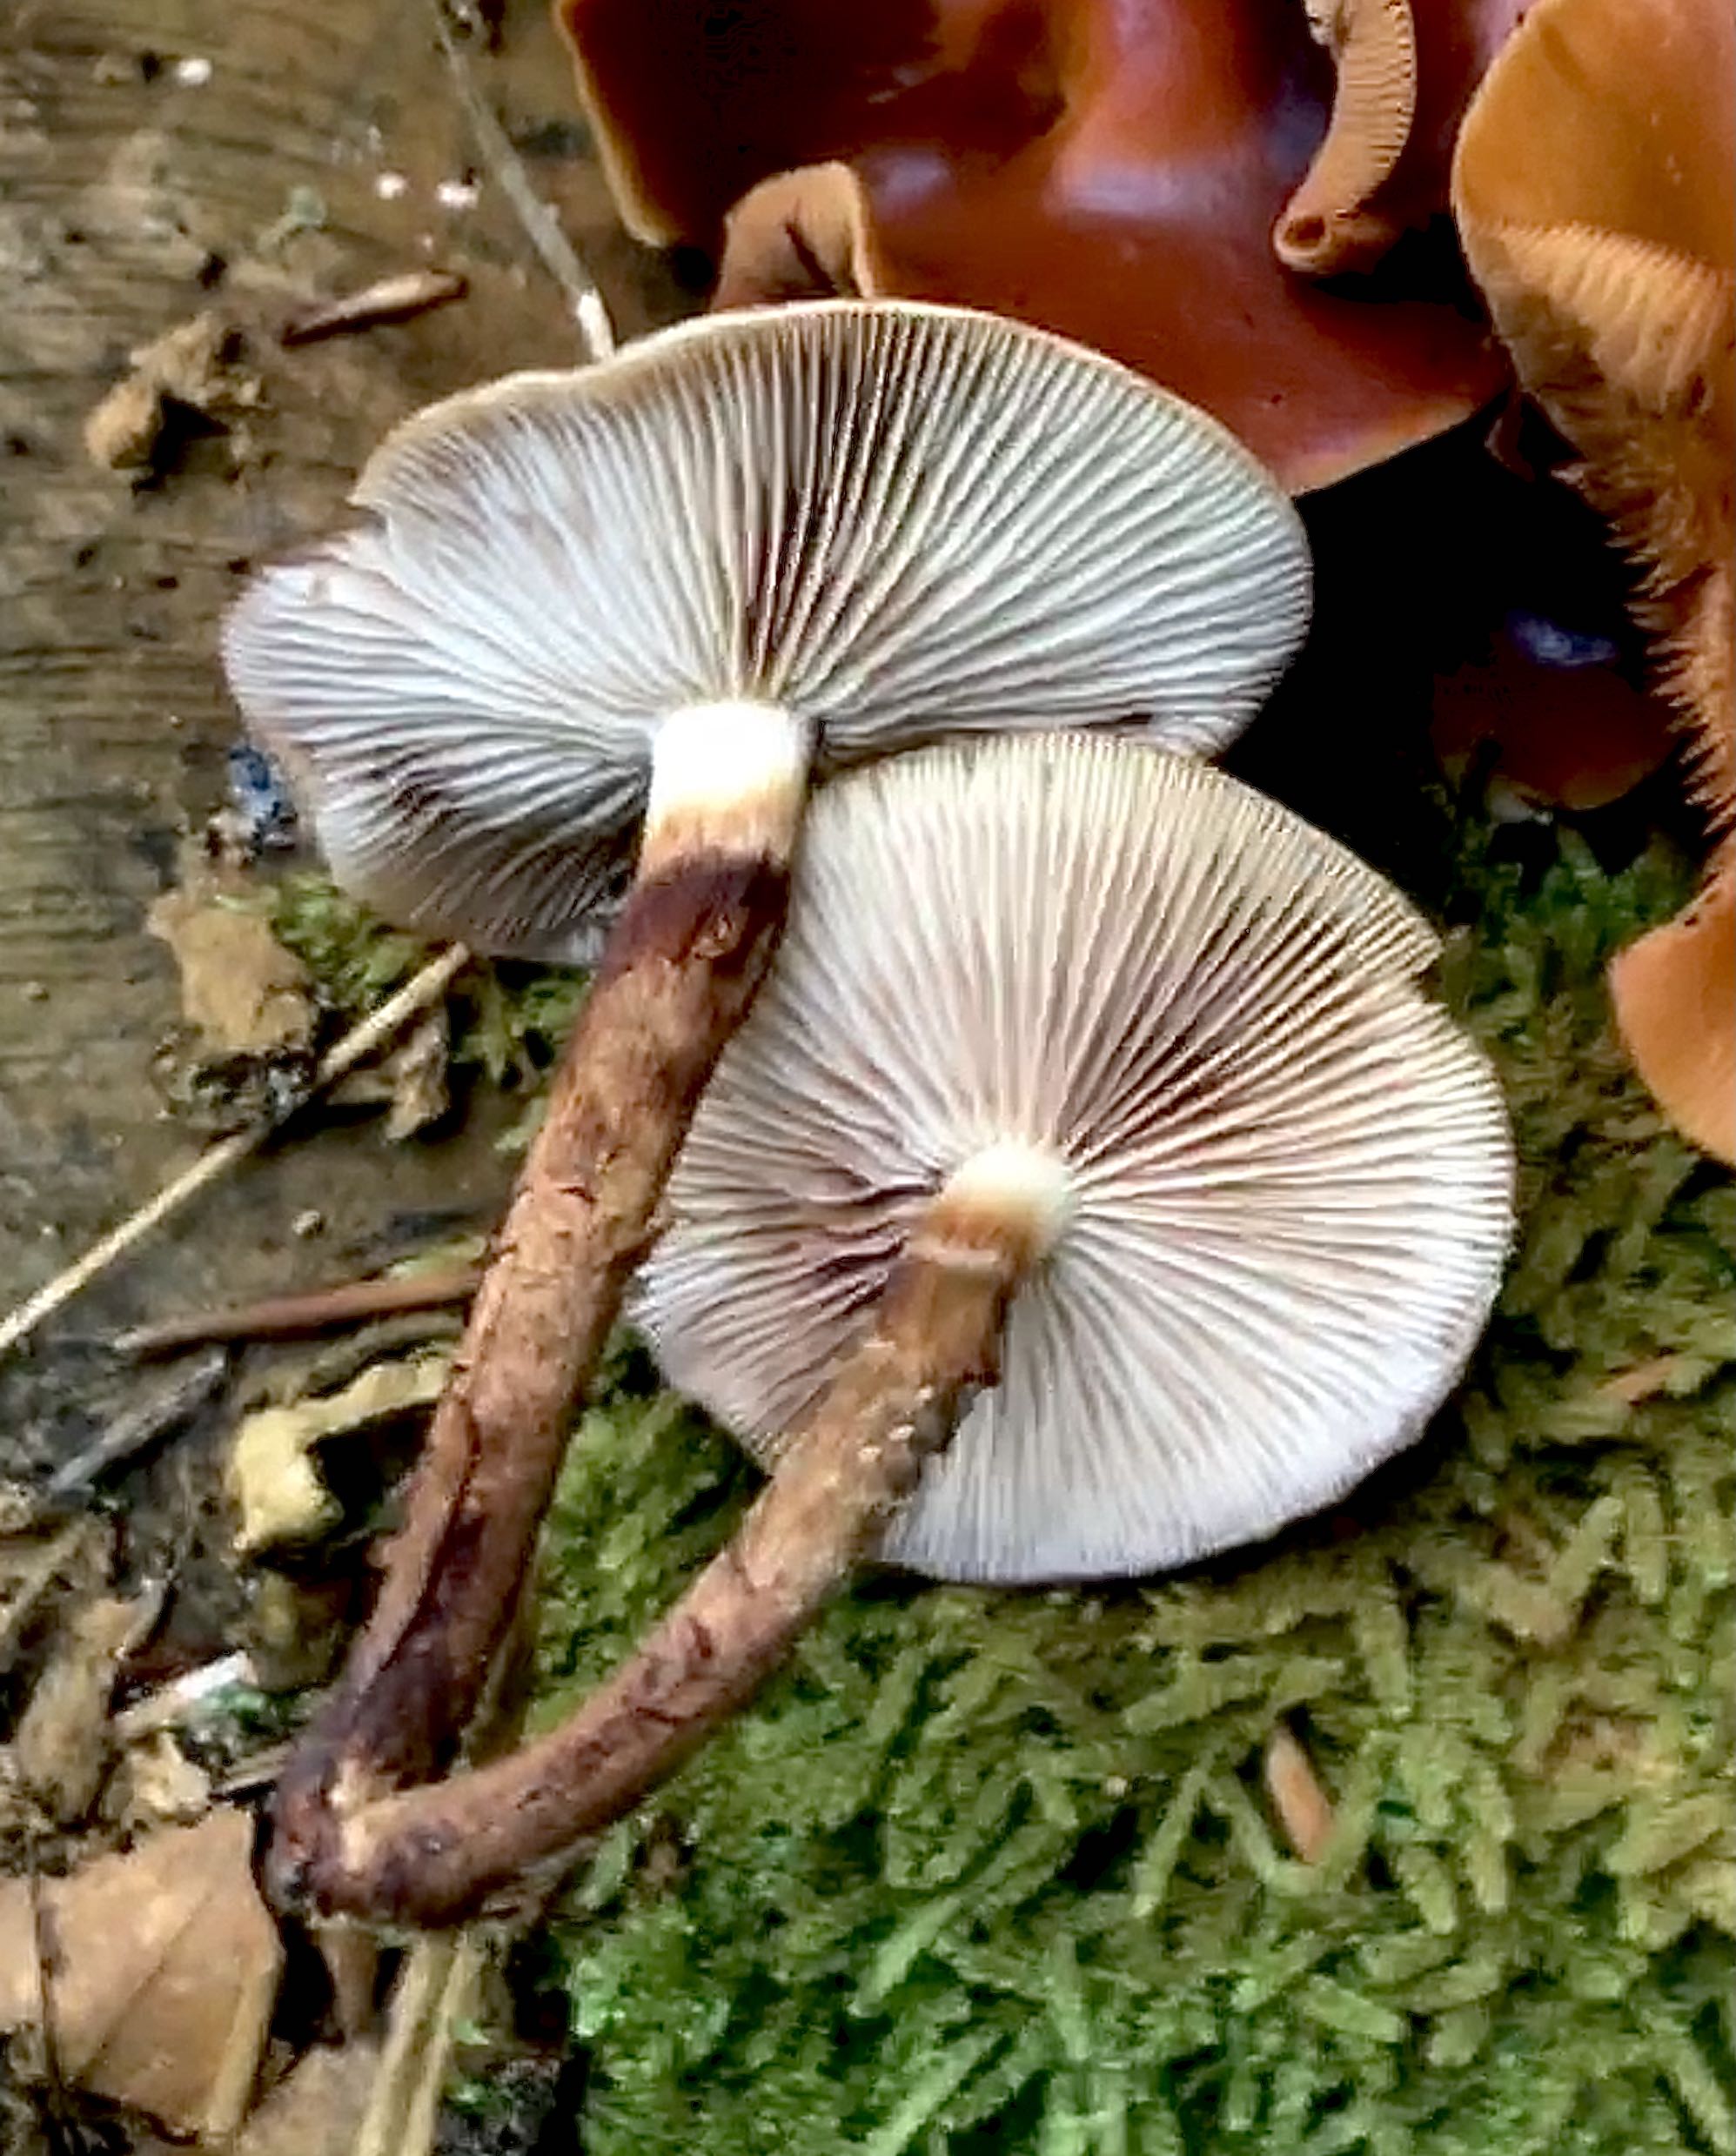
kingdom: Fungi
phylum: Basidiomycota
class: Agaricomycetes
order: Agaricales
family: Strophariaceae
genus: Kuehneromyces
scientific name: Kuehneromyces mutabilis
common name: foranderlig skælhat
